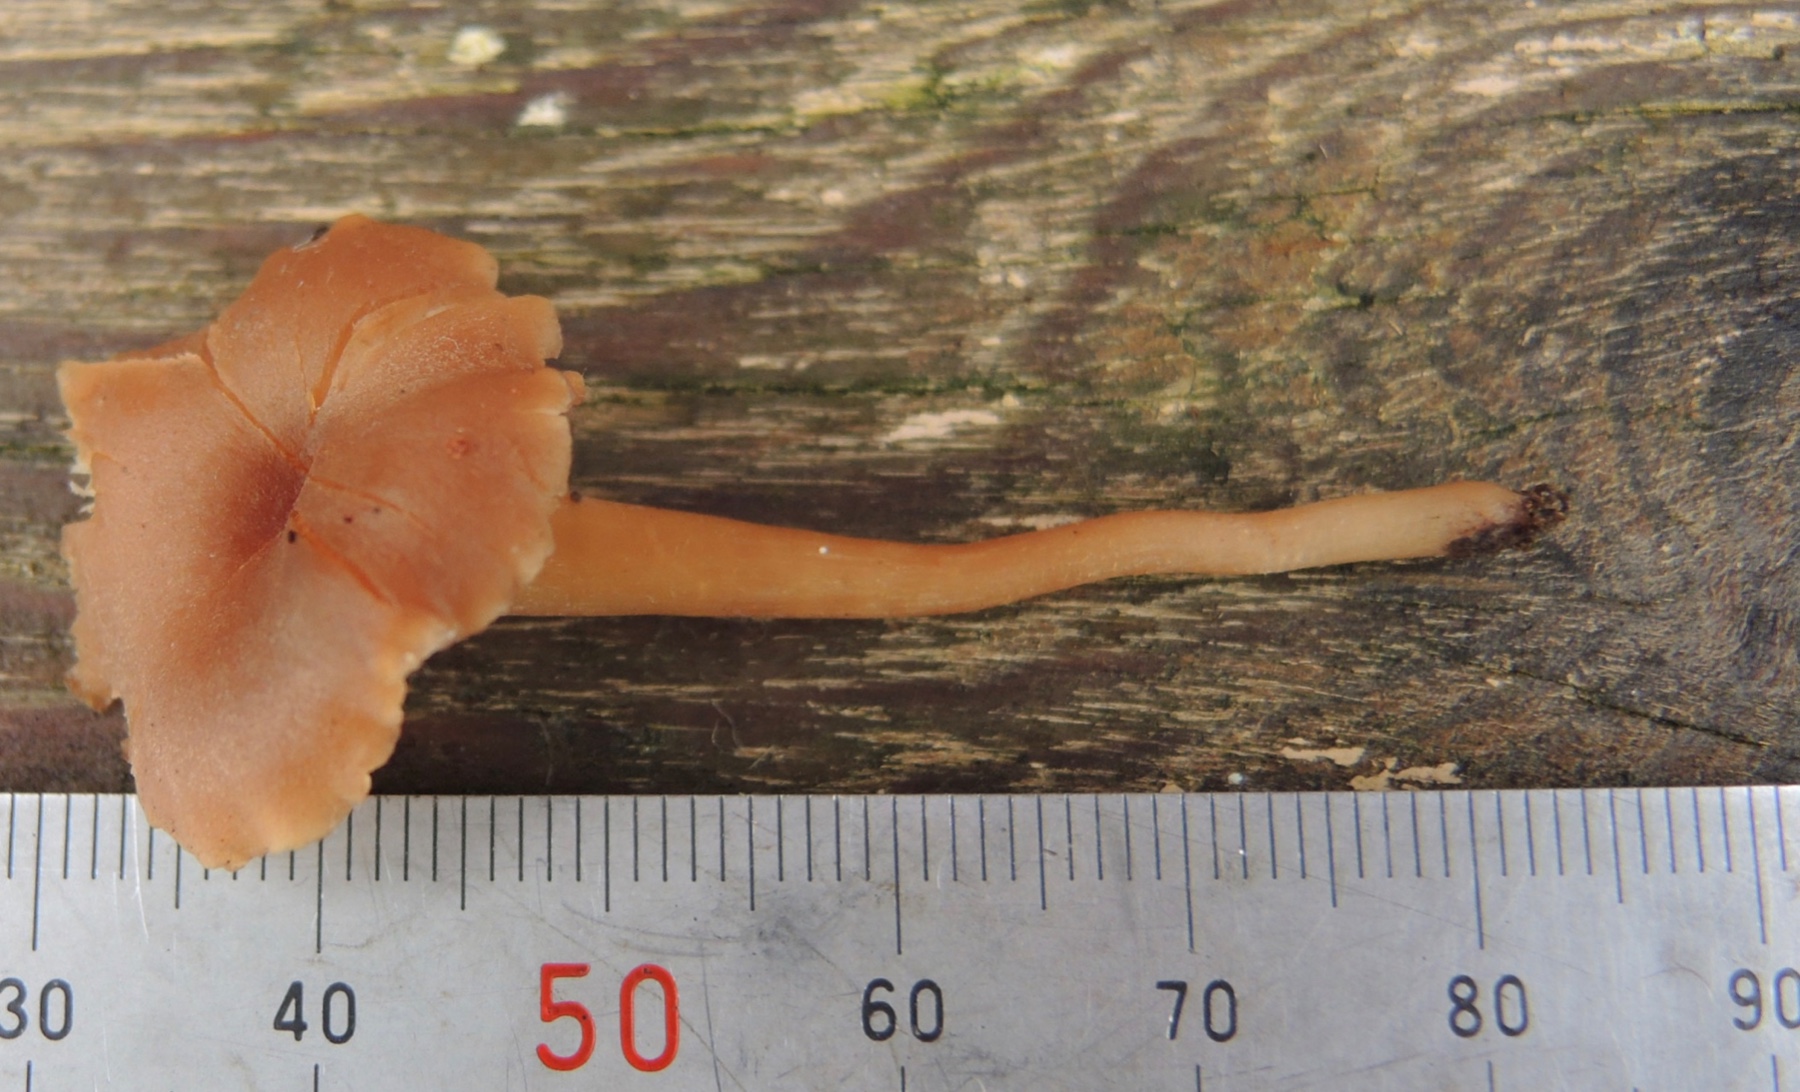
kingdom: Fungi
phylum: Basidiomycota
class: Agaricomycetes
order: Agaricales
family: Callistosporiaceae
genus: Pseudolaccaria
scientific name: Pseudolaccaria pachyphylla
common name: hvælvet tykblad
